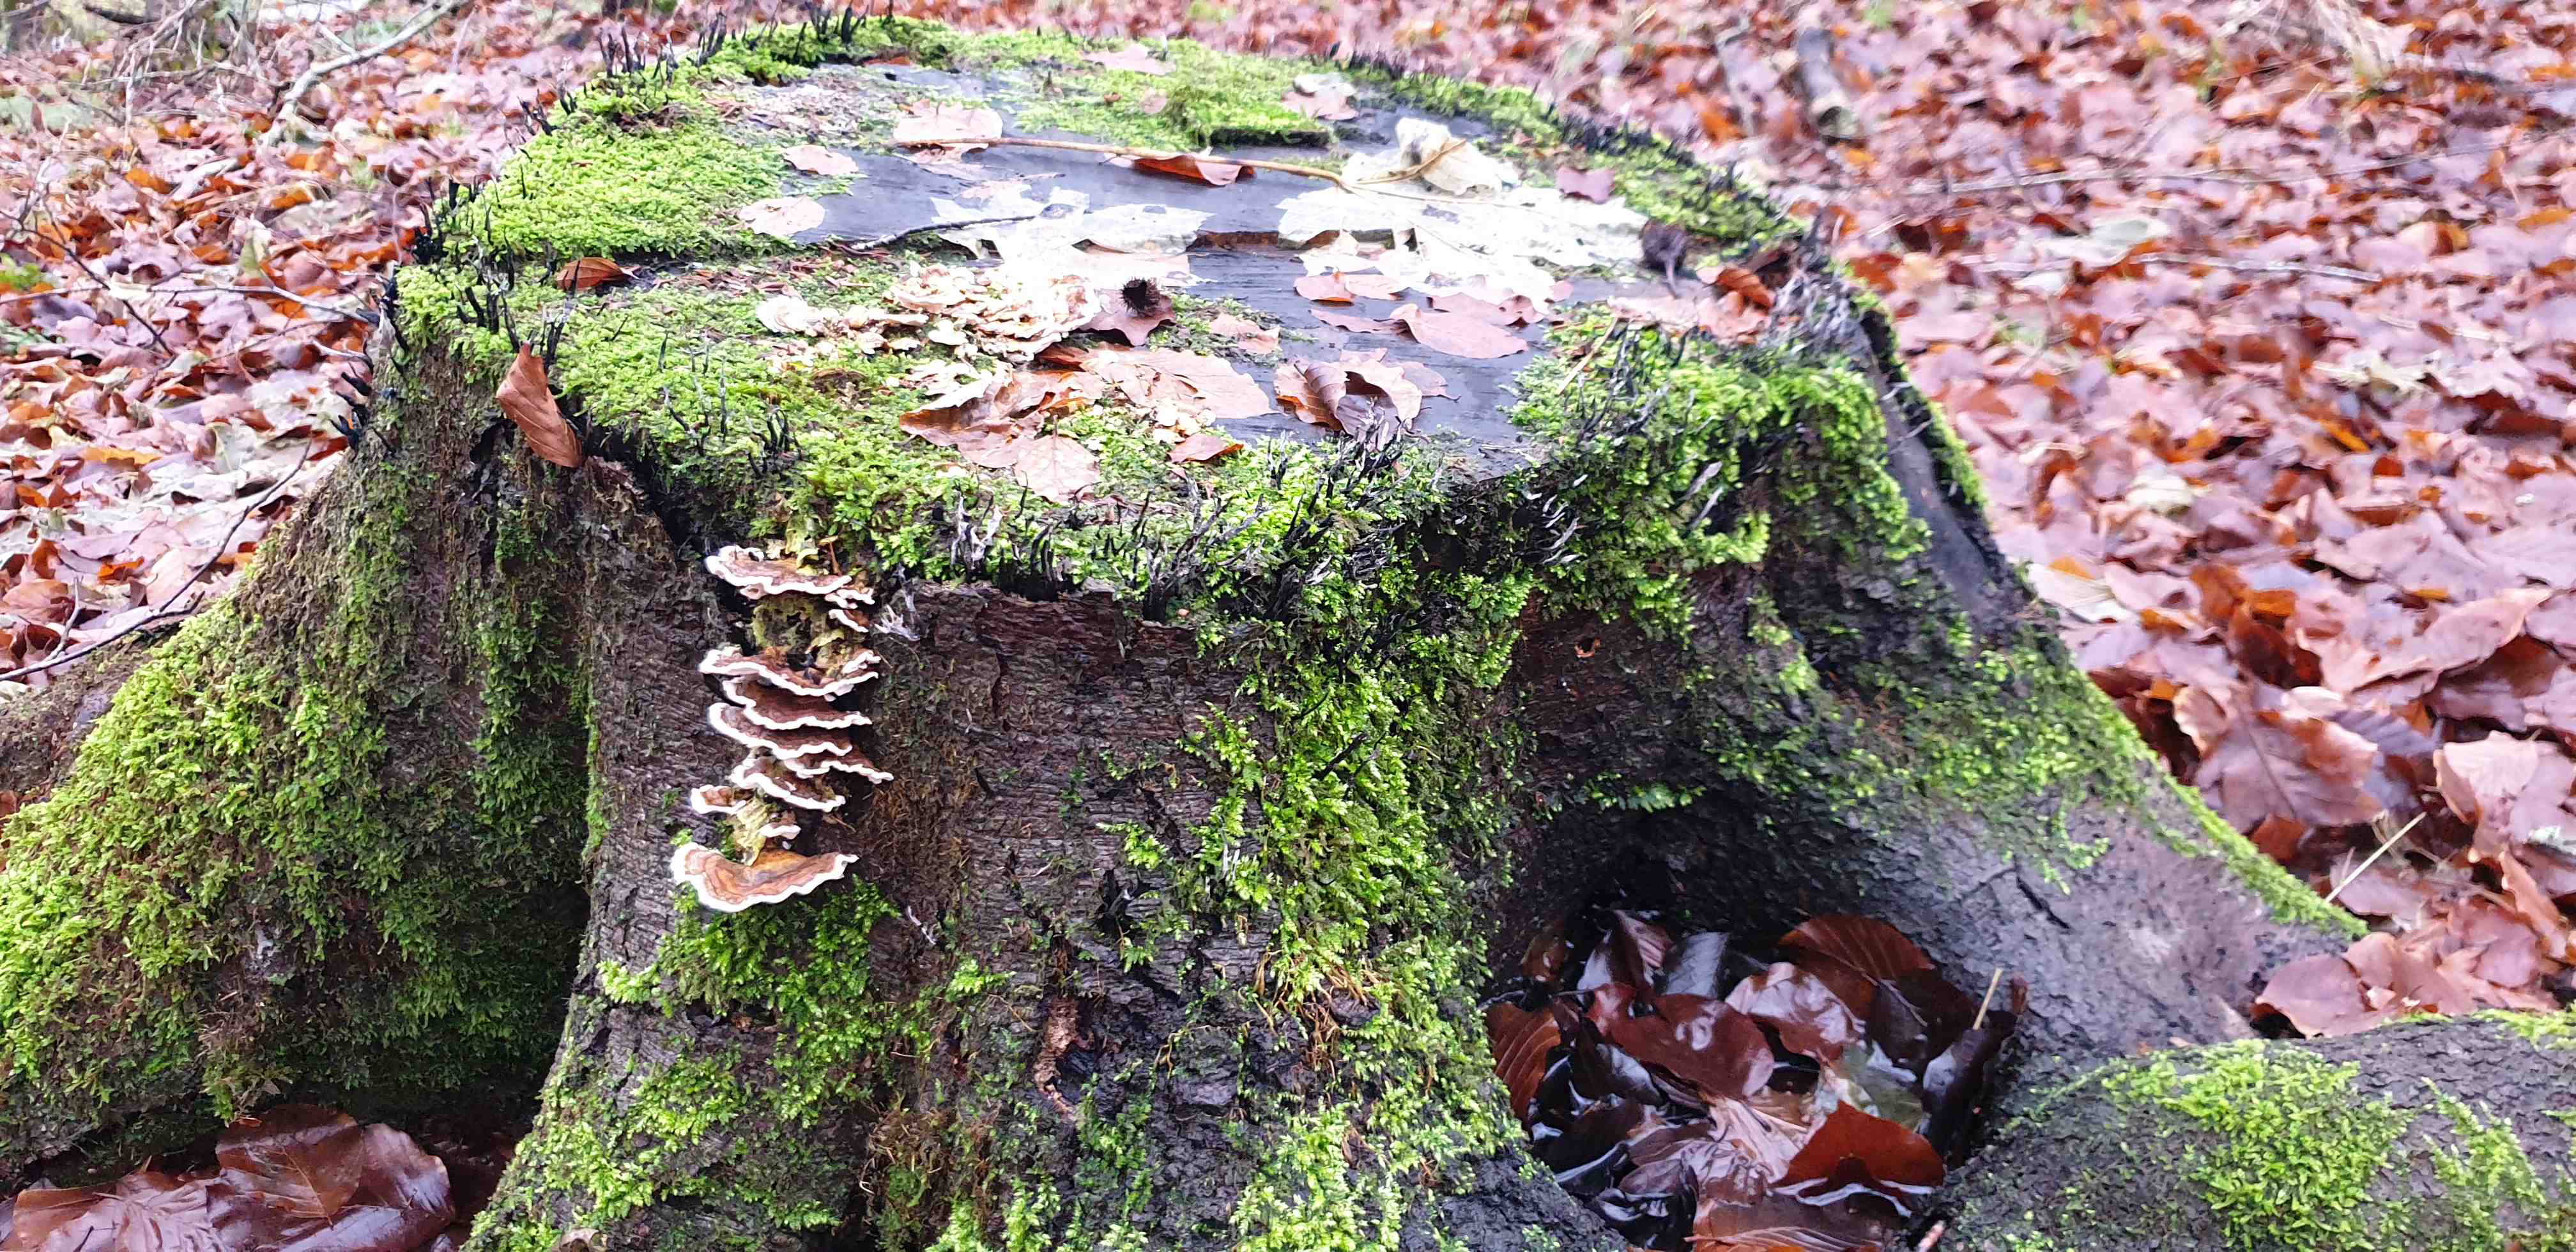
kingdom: Fungi
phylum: Basidiomycota
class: Agaricomycetes
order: Polyporales
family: Polyporaceae
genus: Trametes
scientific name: Trametes versicolor
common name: broget læderporesvamp
